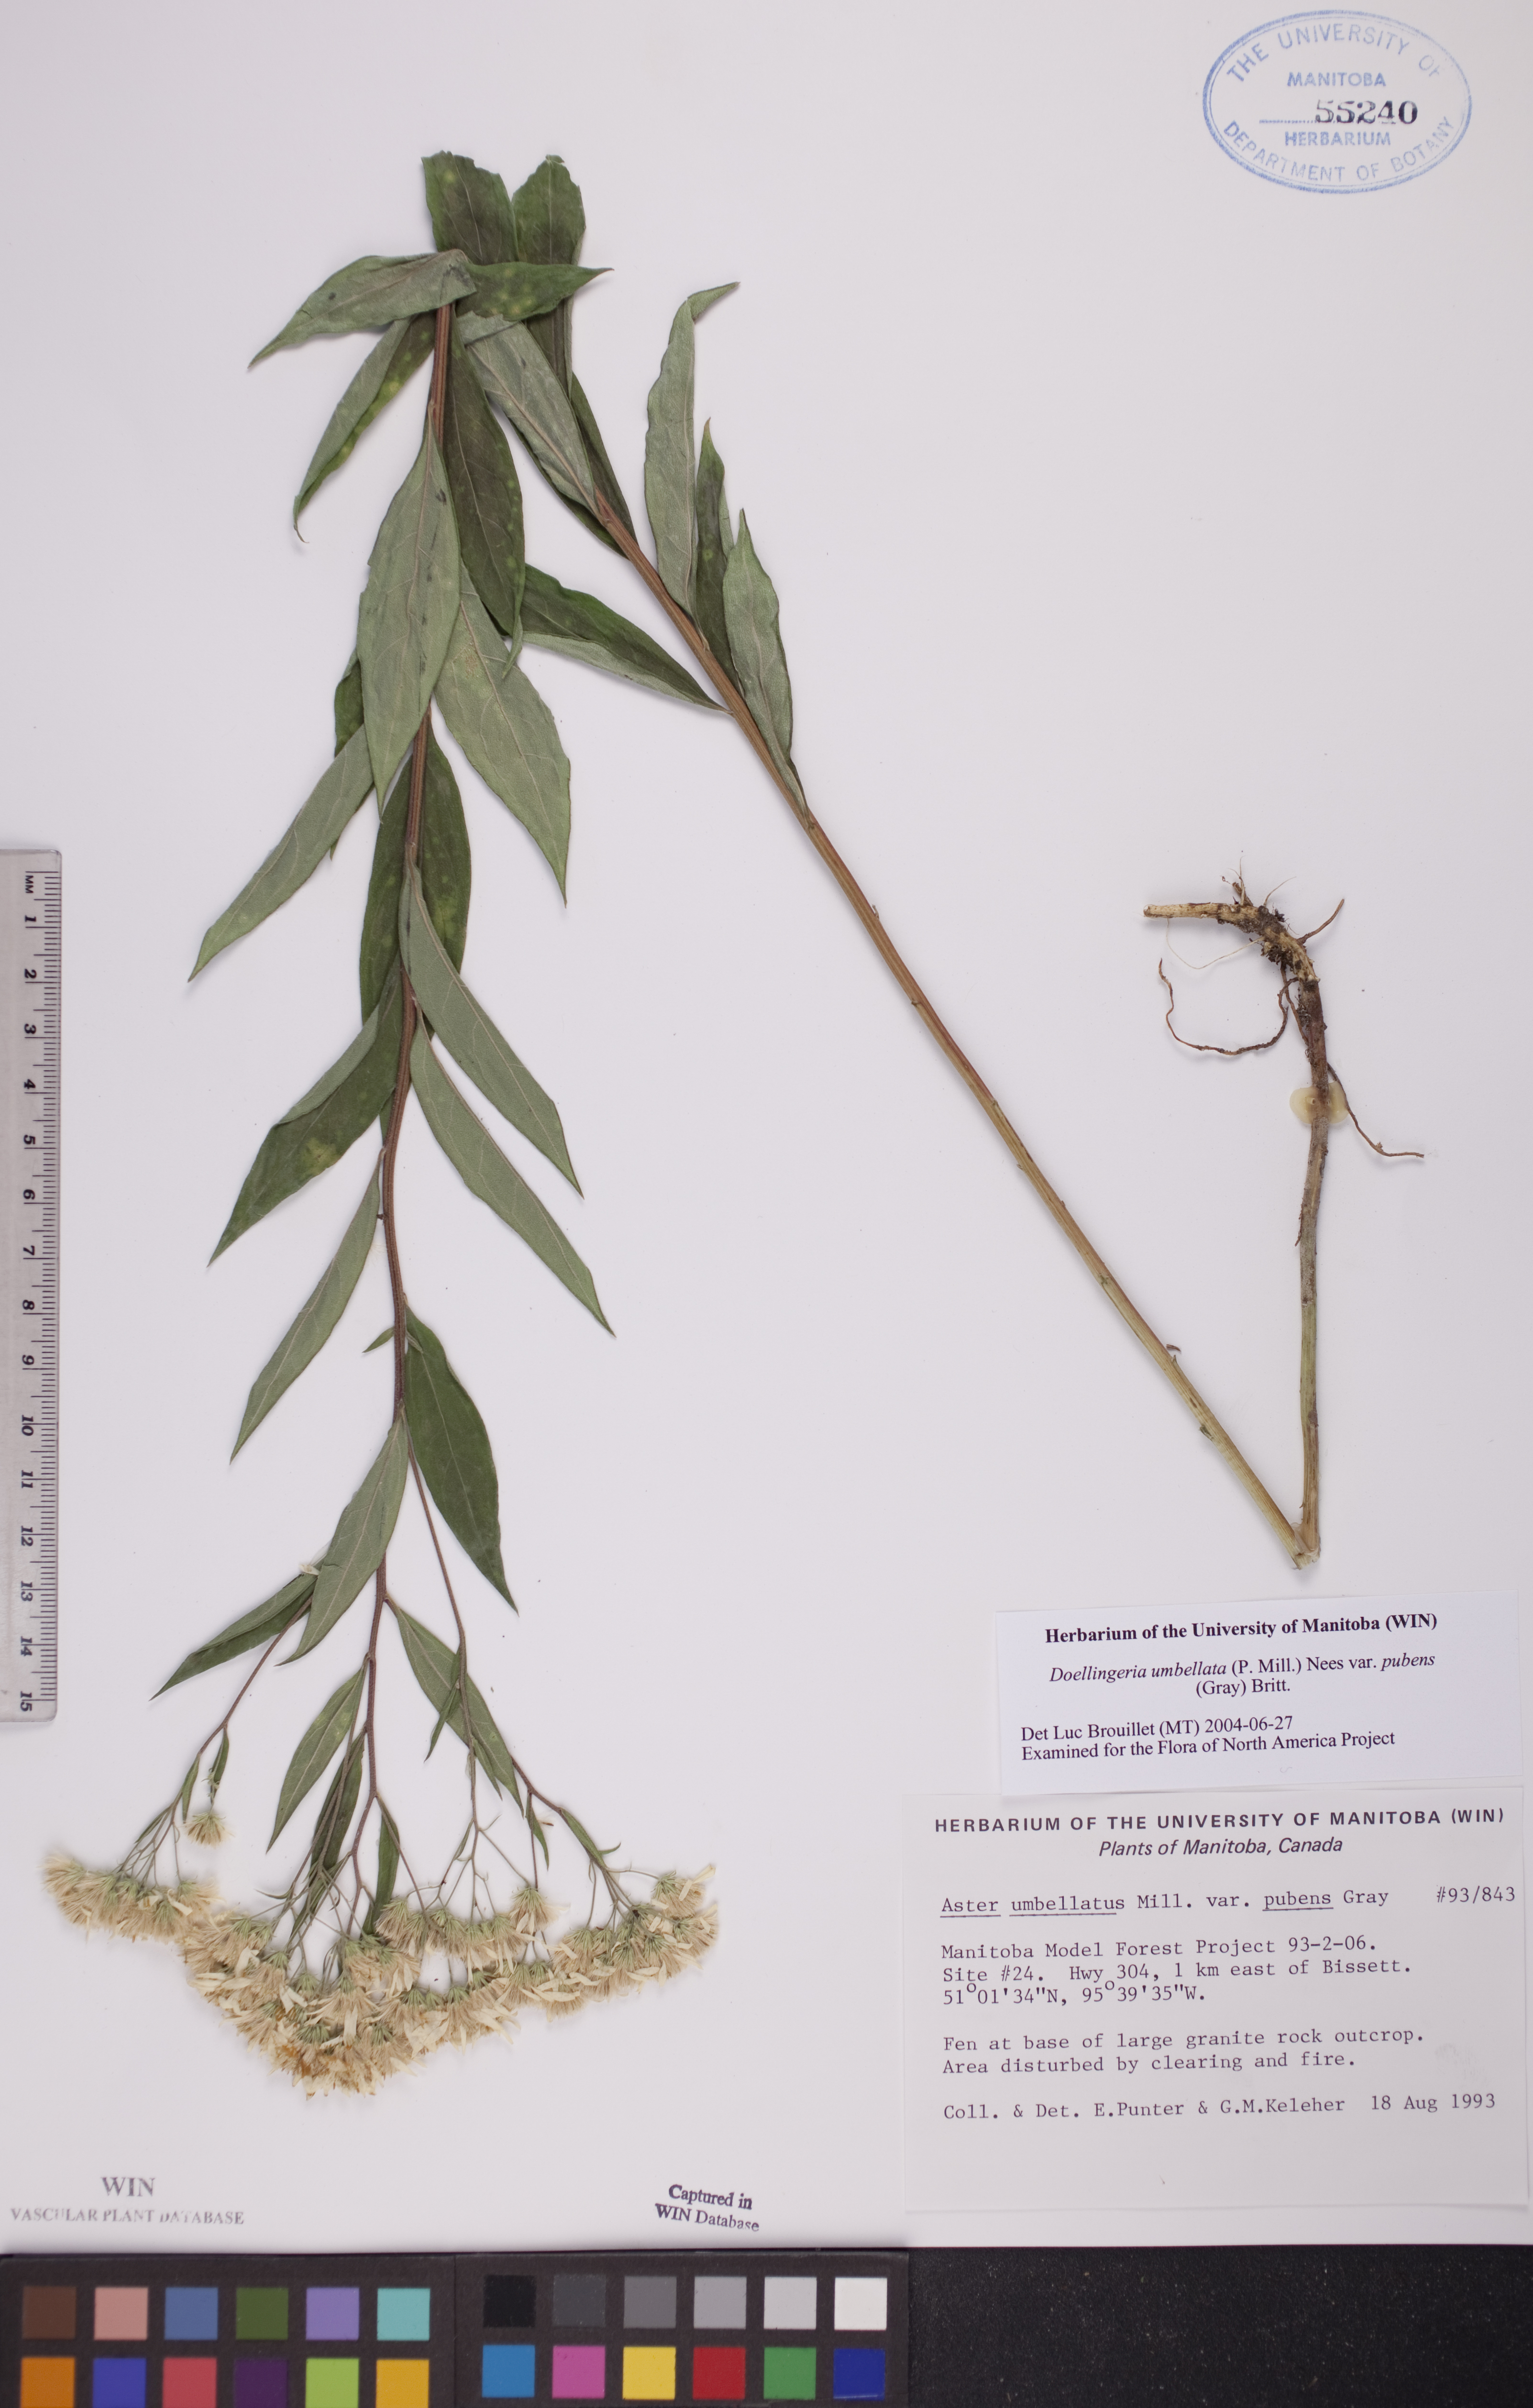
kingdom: Plantae
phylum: Tracheophyta
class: Magnoliopsida
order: Asterales
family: Asteraceae
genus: Doellingeria
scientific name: Doellingeria umbellata
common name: Flat-top white aster
